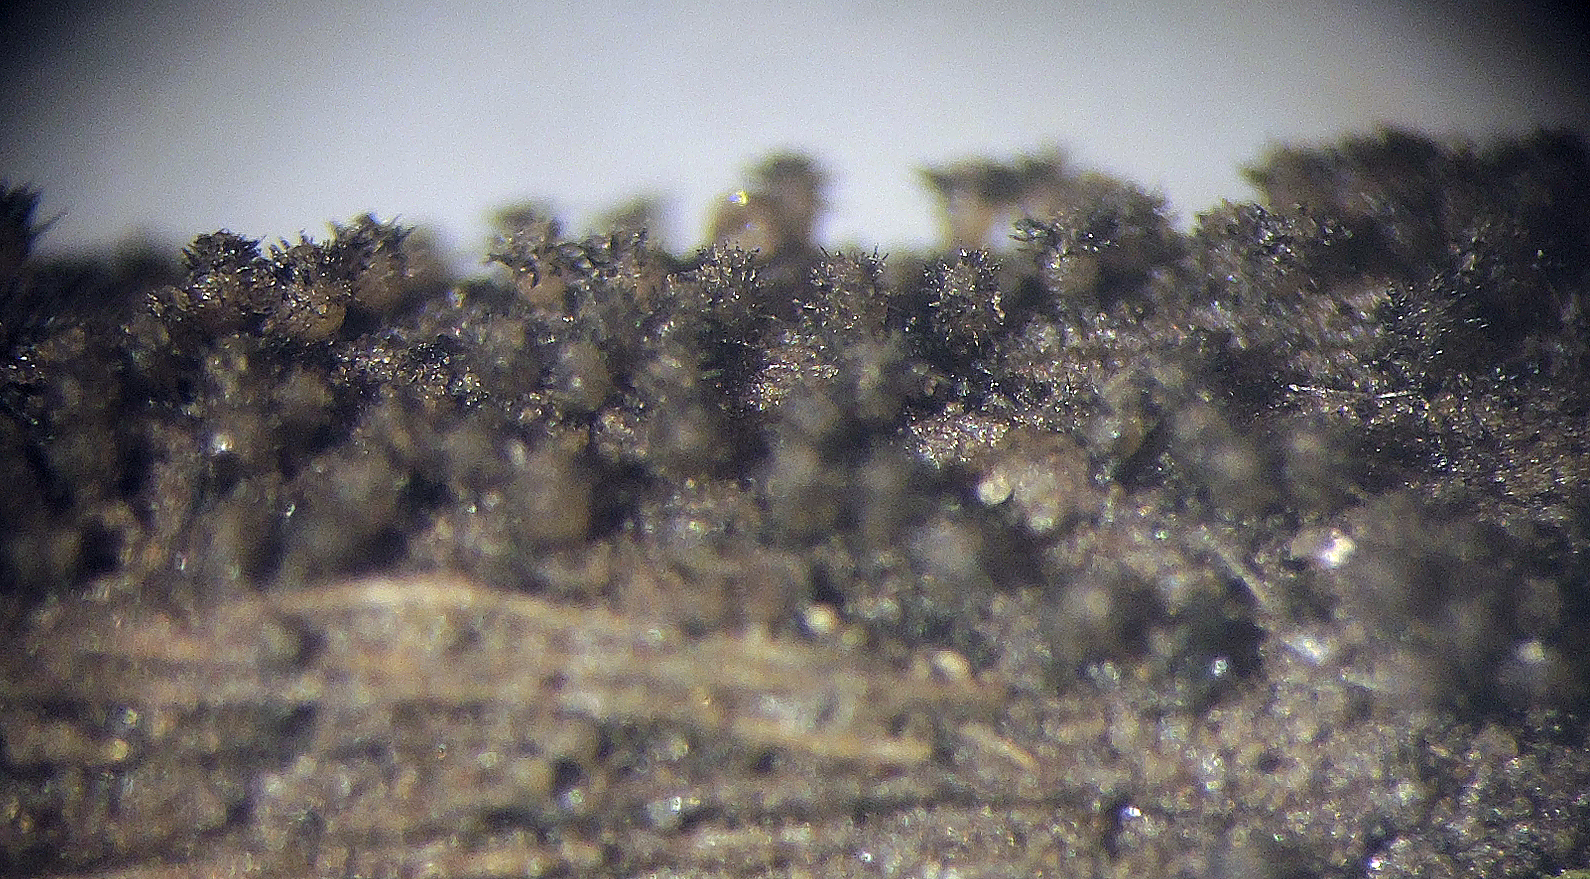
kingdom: Fungi
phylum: Ascomycota
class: Dothideomycetes
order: Tubeufiales
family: Tubeufiaceae
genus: Tubeufia
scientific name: Tubeufia helicomyces
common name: spiralsporet tyksækkrukke
